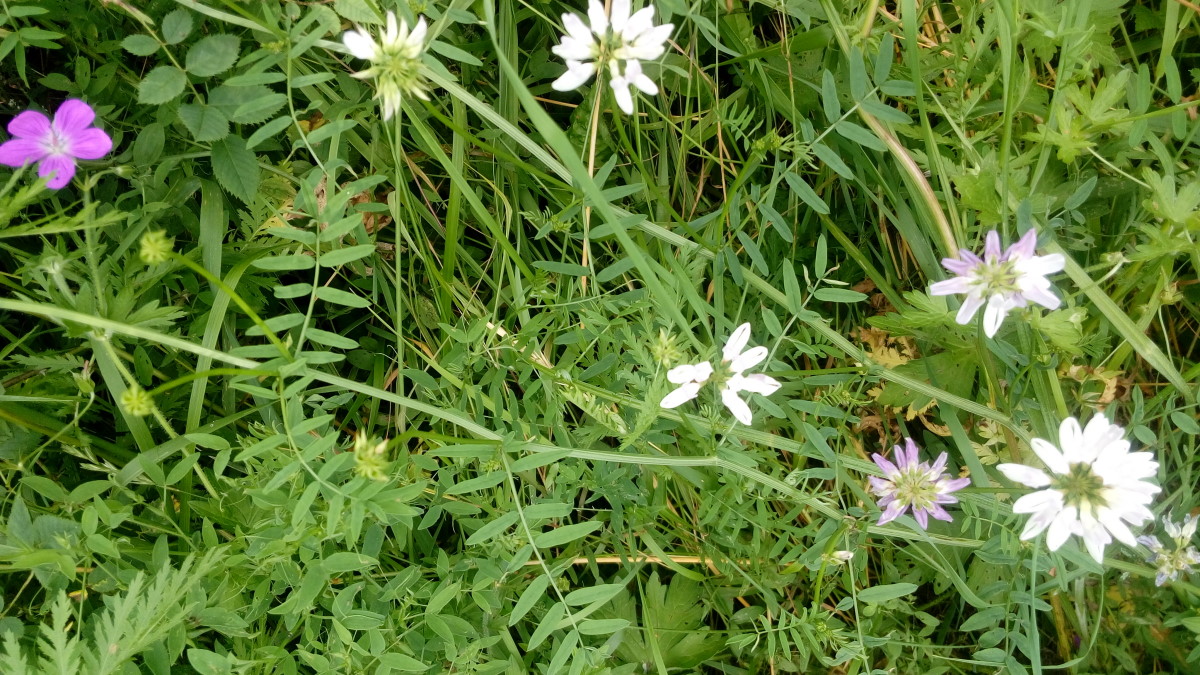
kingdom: Plantae
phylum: Tracheophyta
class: Magnoliopsida
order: Fabales
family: Fabaceae
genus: Coronilla
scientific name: Coronilla varia
